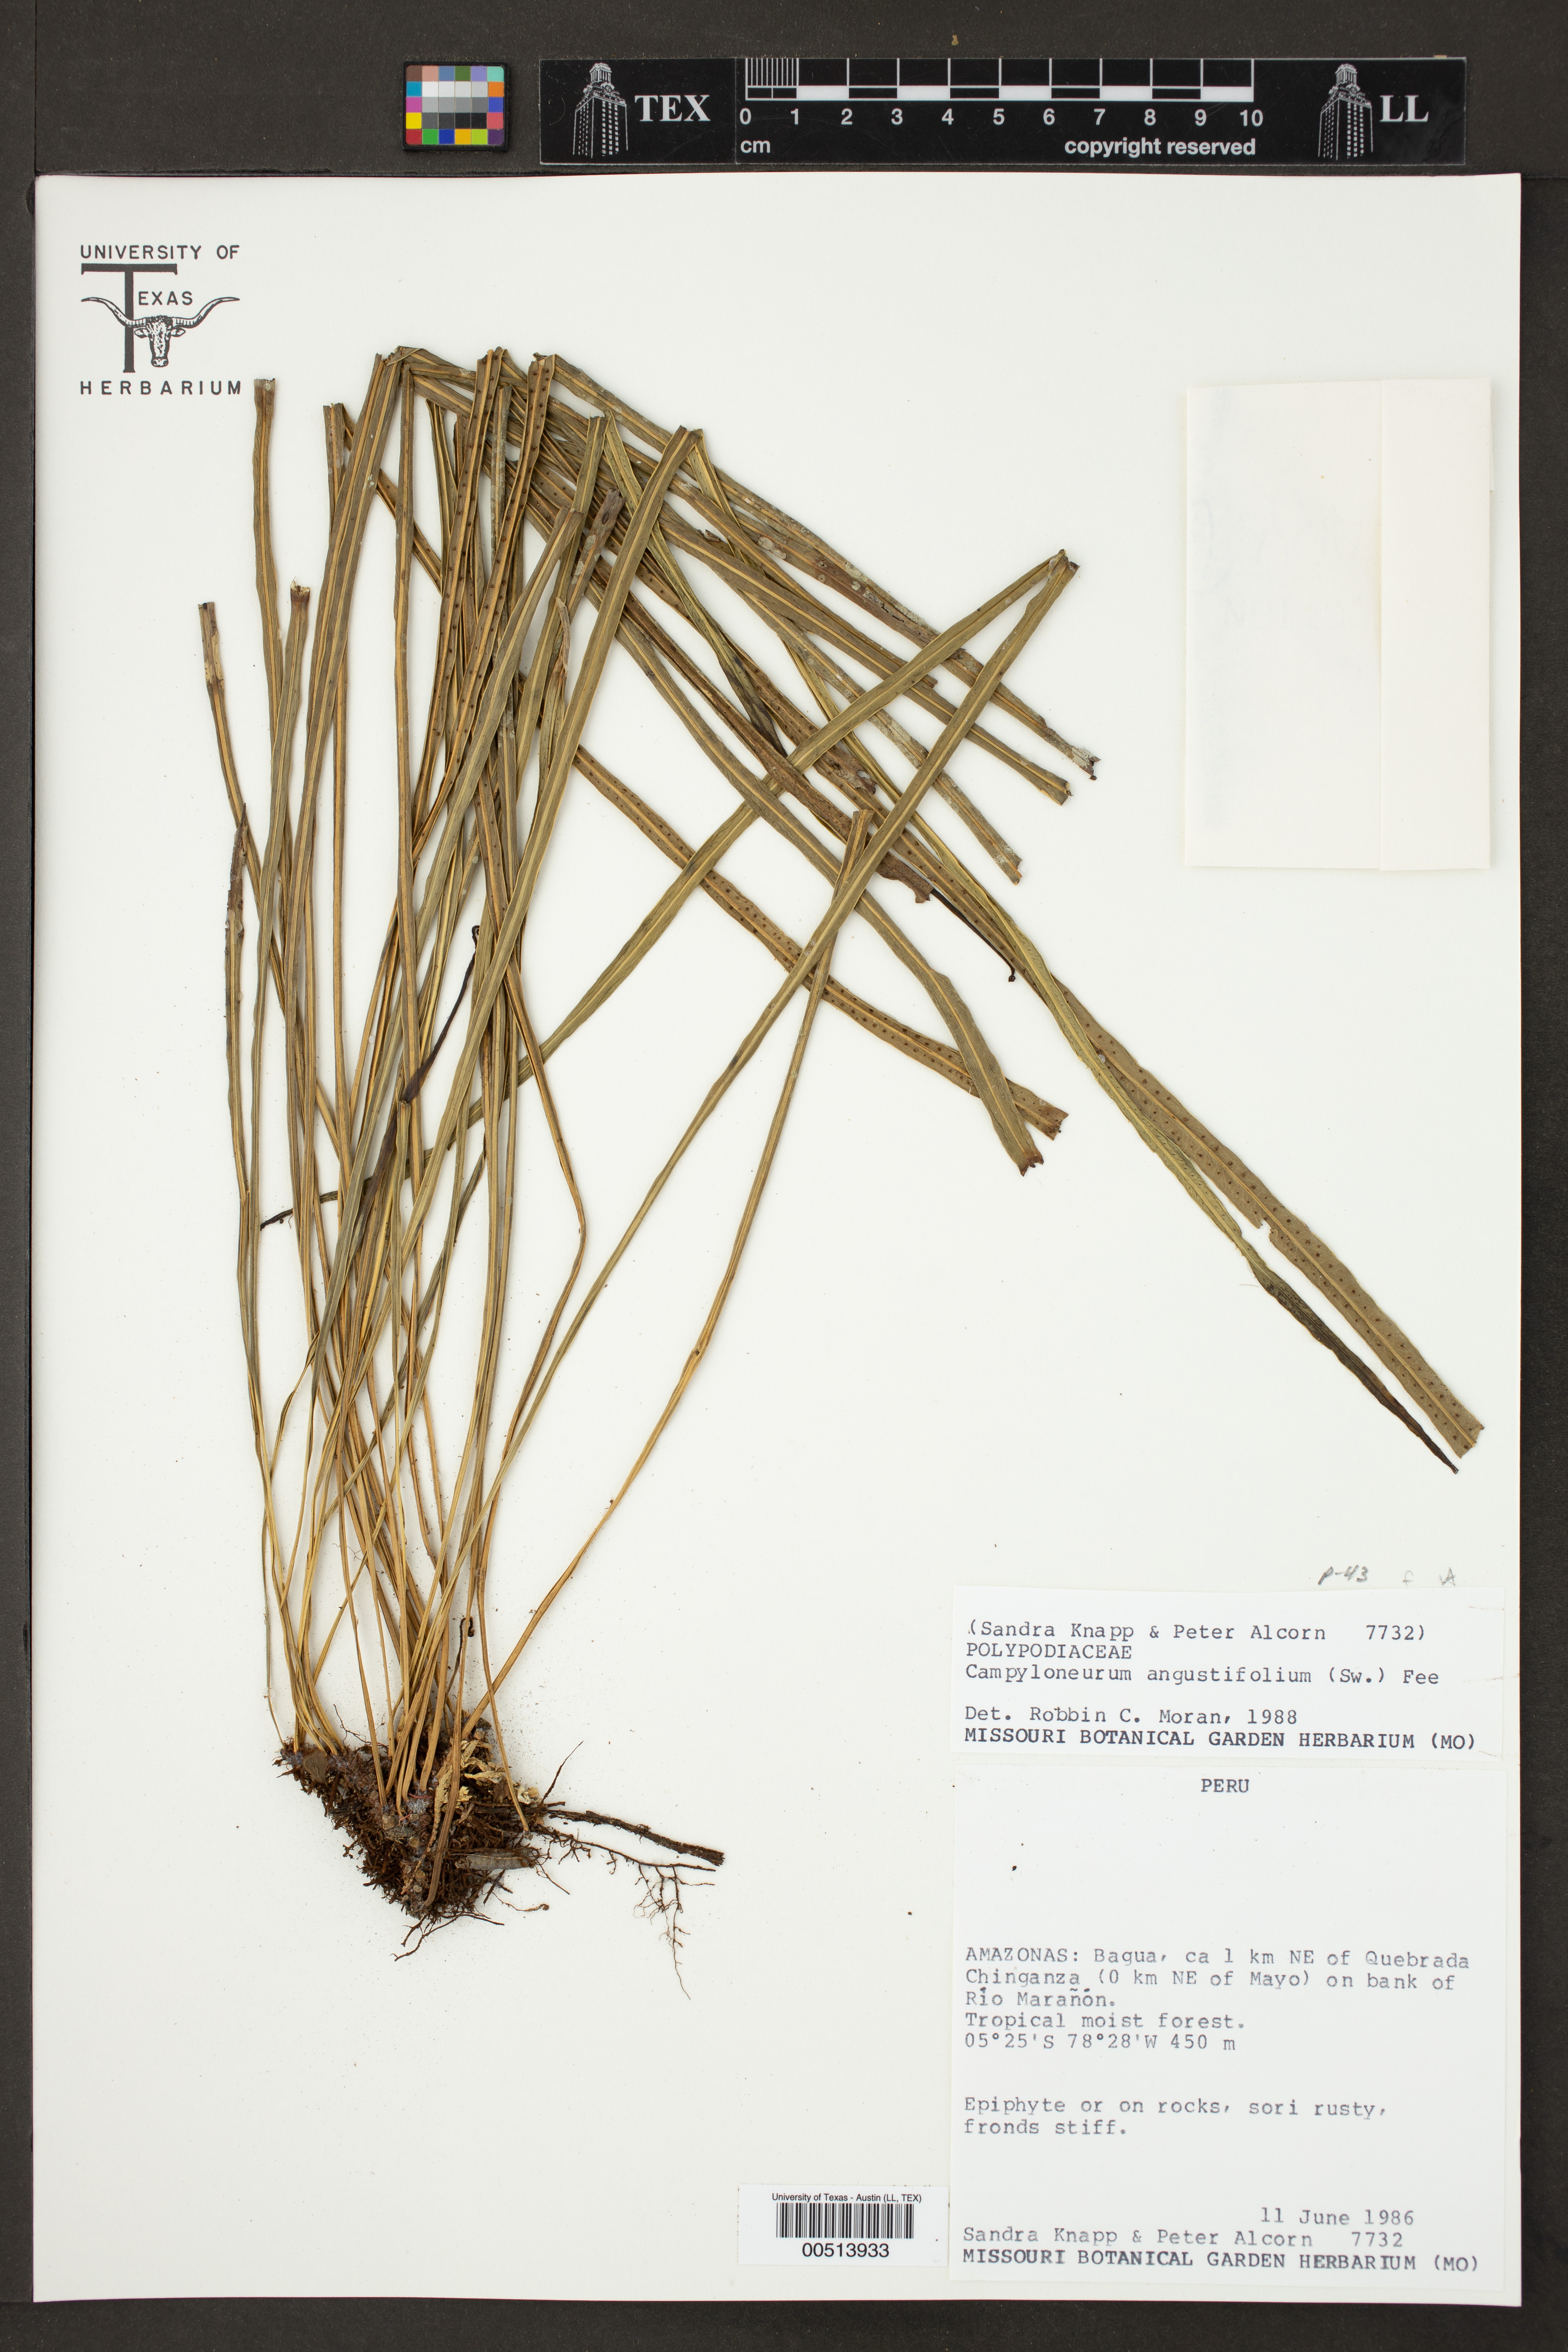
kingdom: Plantae
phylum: Tracheophyta
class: Polypodiopsida
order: Polypodiales
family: Polypodiaceae
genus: Campyloneurum
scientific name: Campyloneurum angustifolium
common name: Narrow-leaf strap fern
